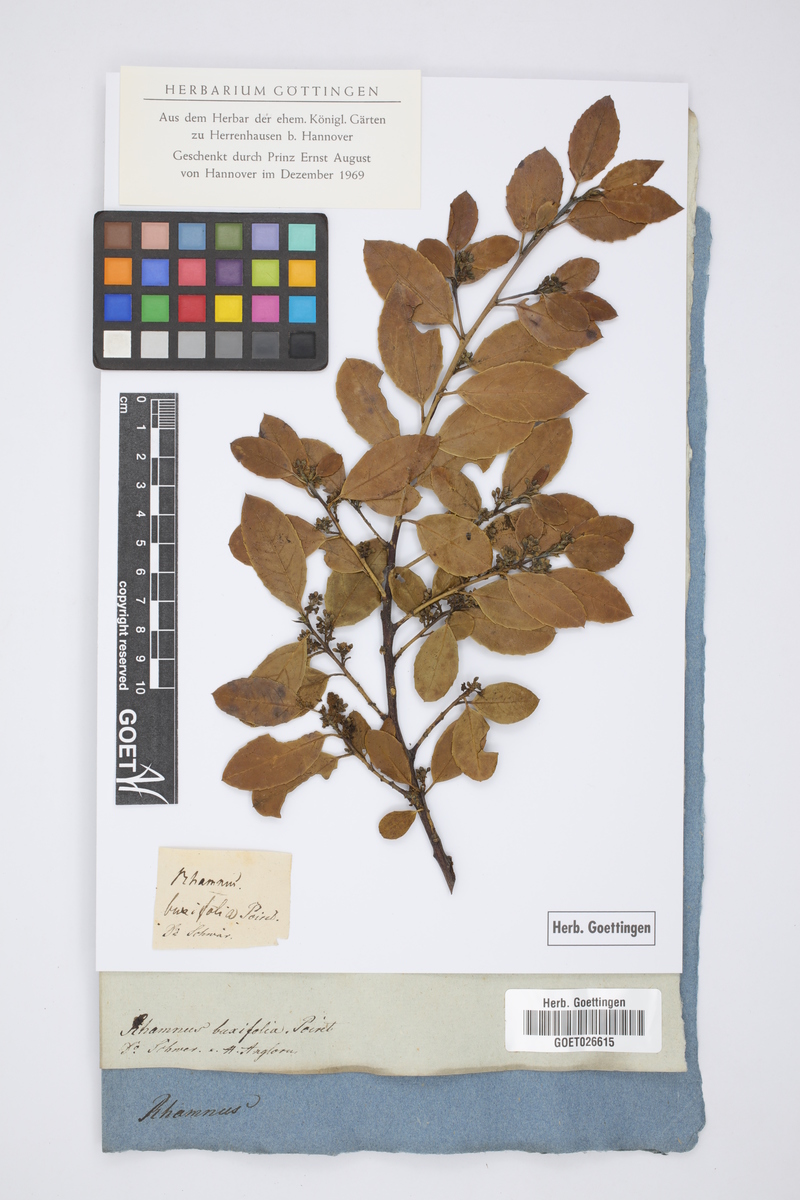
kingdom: Plantae
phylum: Tracheophyta
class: Magnoliopsida
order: Malpighiales
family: Phyllanthaceae
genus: Flueggea
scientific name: Flueggea tinctoria
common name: Tamujo
